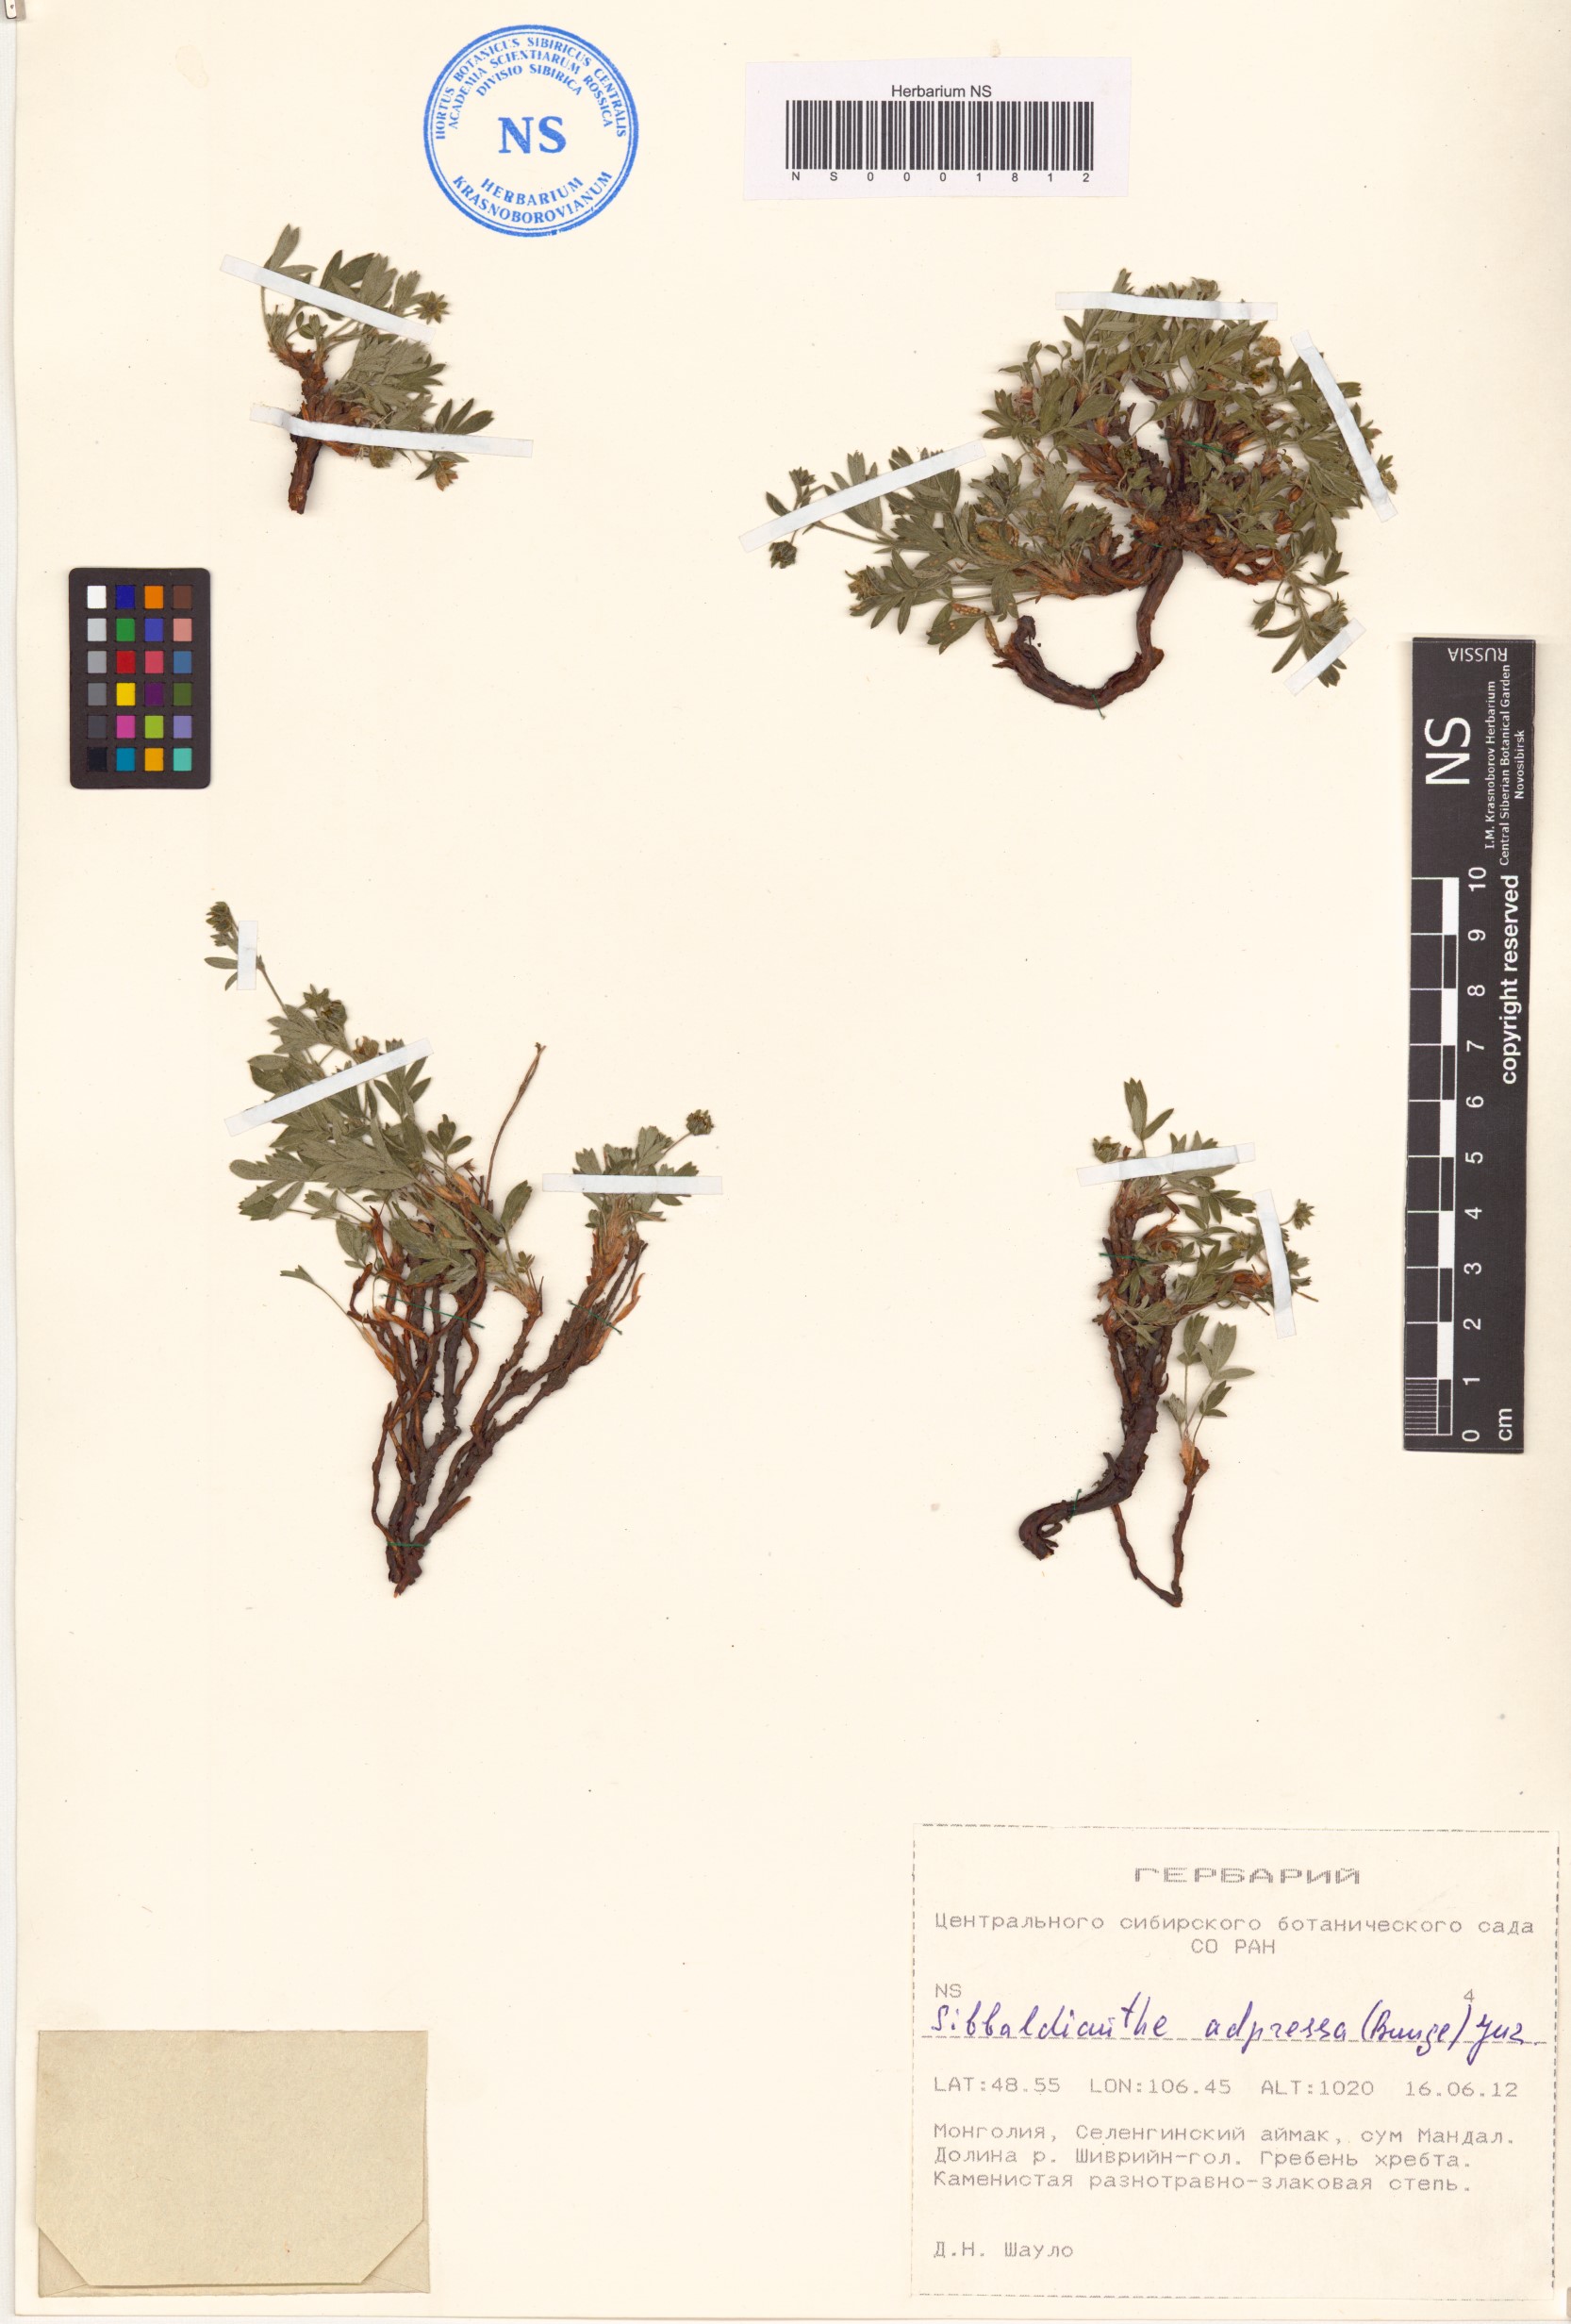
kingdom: Plantae
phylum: Tracheophyta
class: Magnoliopsida
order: Rosales
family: Rosaceae
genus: Sibbaldianthe
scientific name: Sibbaldianthe adpressa
